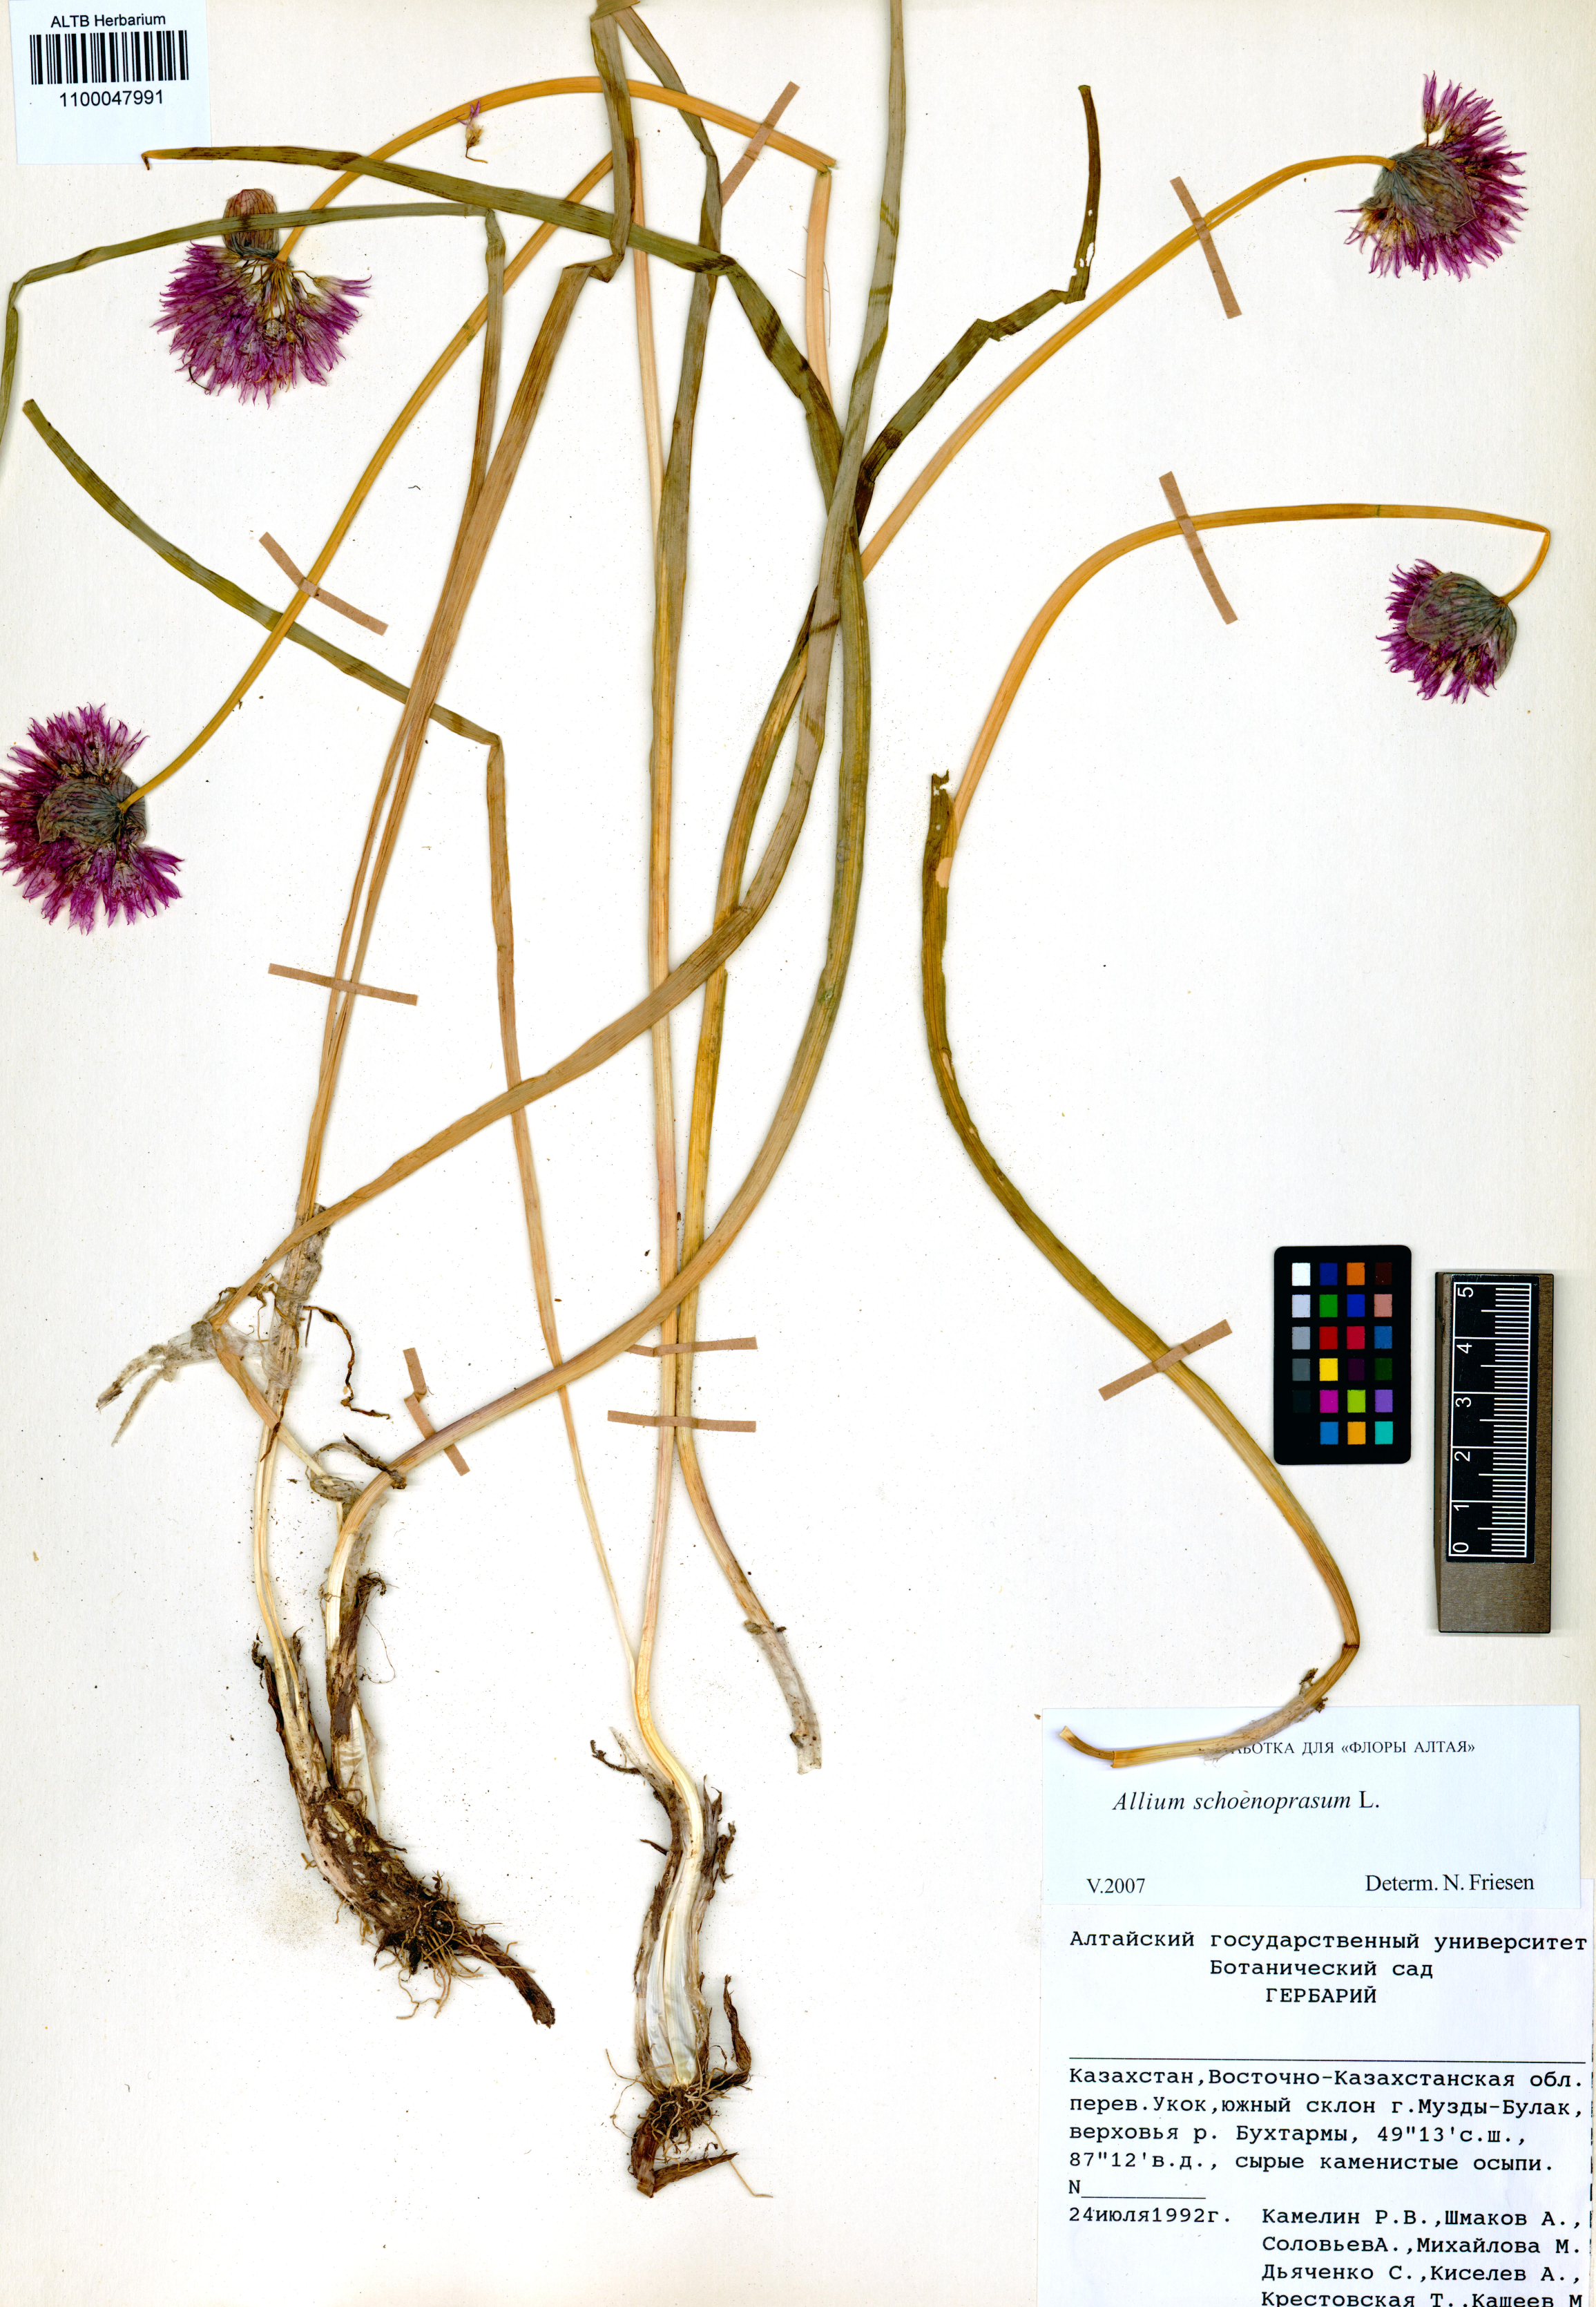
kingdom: Plantae
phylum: Tracheophyta
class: Liliopsida
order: Asparagales
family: Amaryllidaceae
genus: Allium
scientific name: Allium schoenoprasum
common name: Chives
